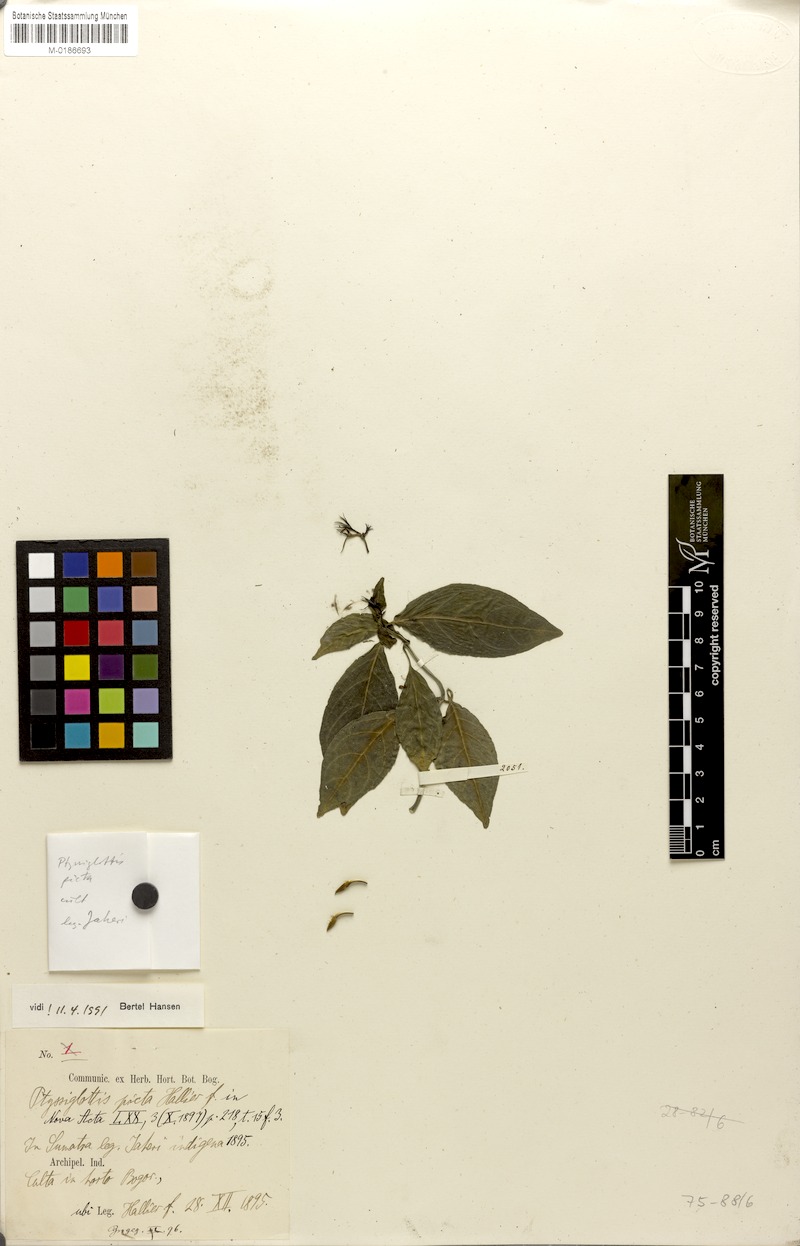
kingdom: Plantae
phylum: Tracheophyta
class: Magnoliopsida
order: Lamiales
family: Acanthaceae
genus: Ptyssiglottis
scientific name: Ptyssiglottis picta
